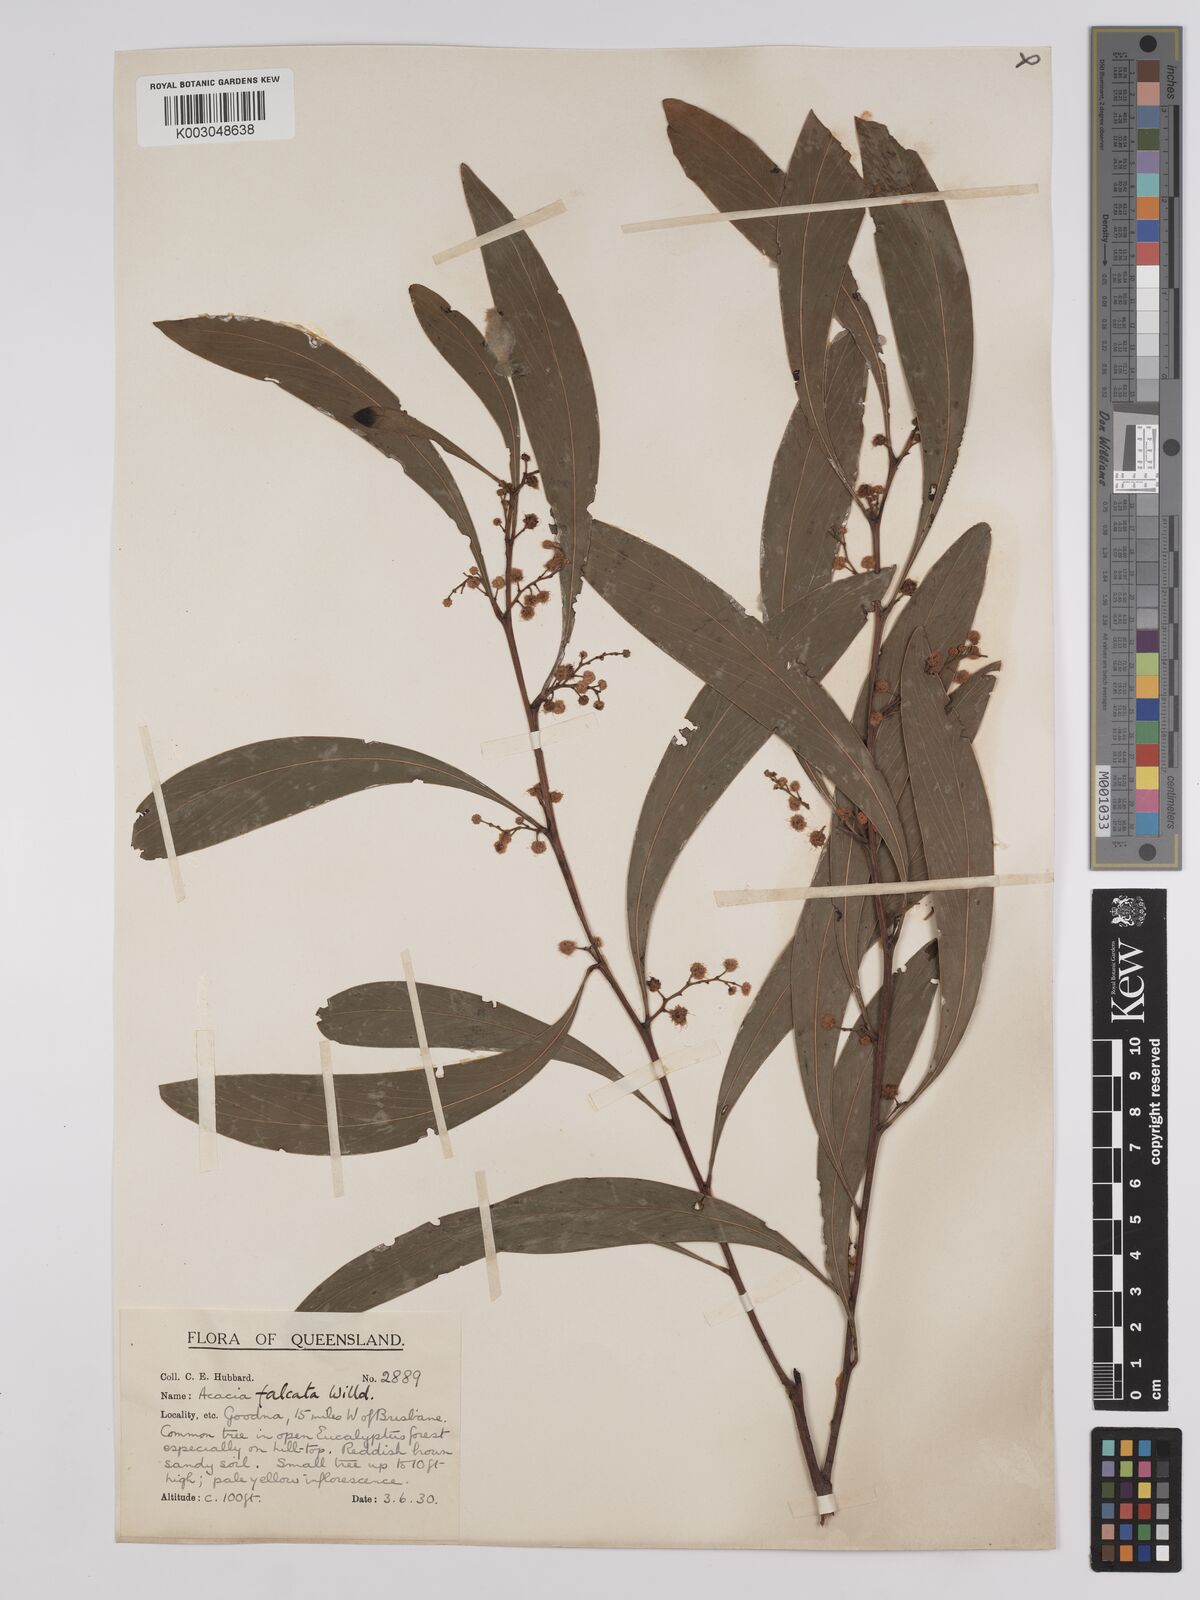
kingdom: Plantae
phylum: Tracheophyta
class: Magnoliopsida
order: Fabales
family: Fabaceae
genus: Acacia
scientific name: Acacia falcata
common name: Burra acacia
